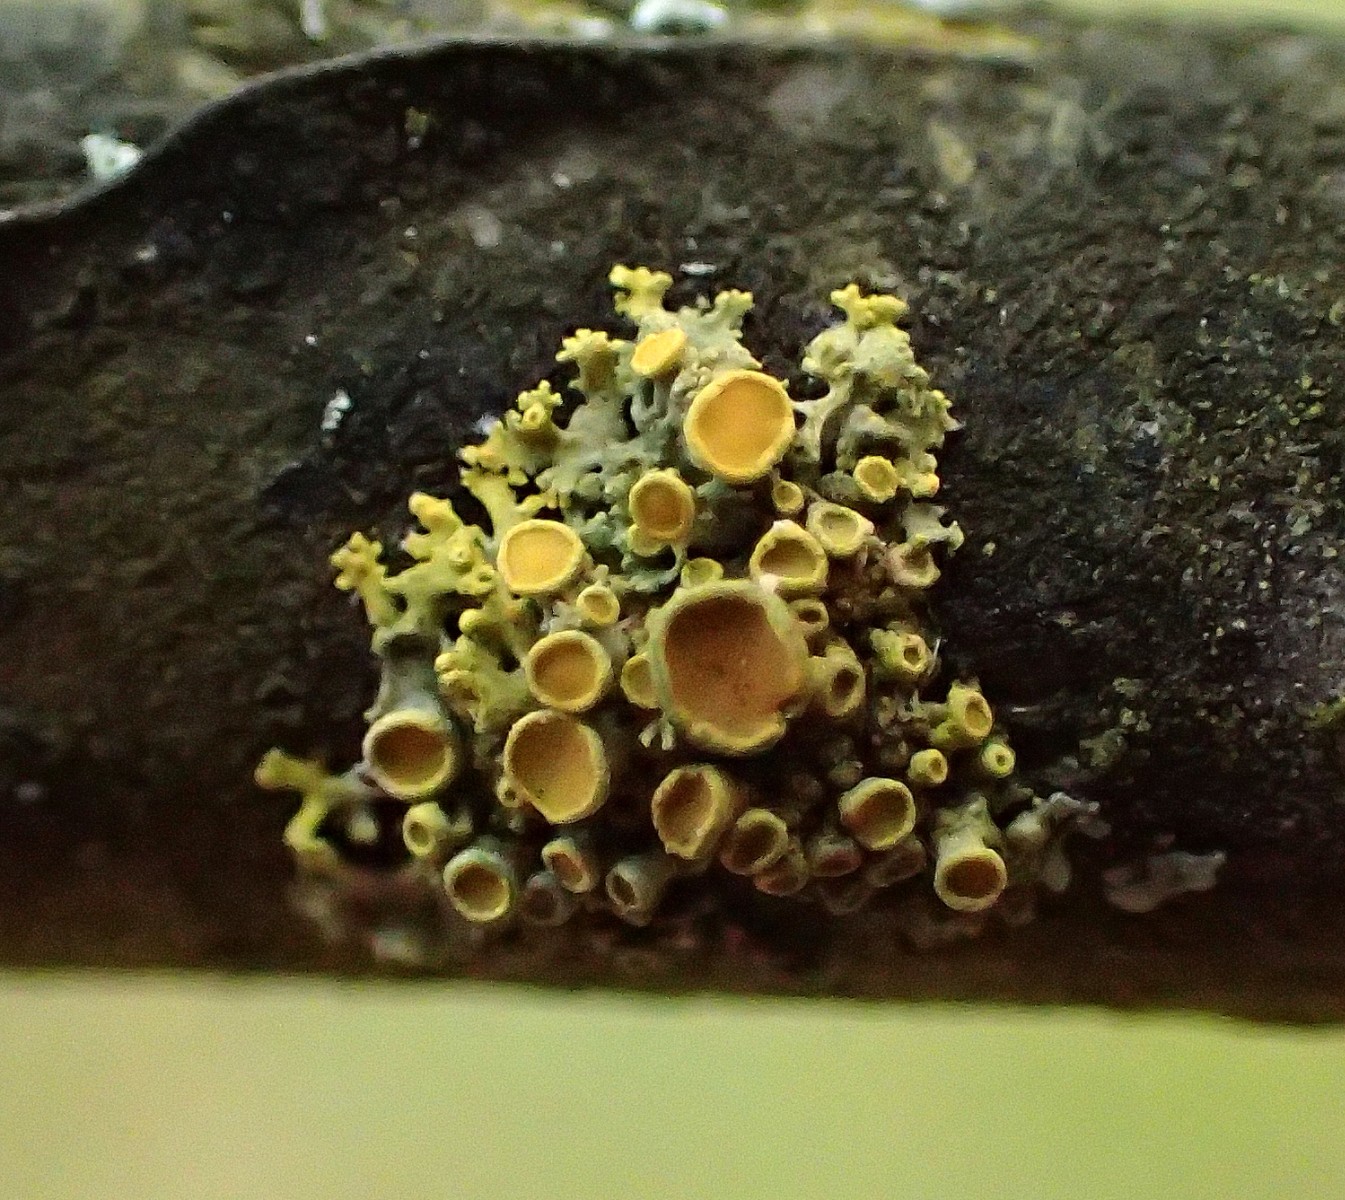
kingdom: Fungi
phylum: Ascomycota
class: Lecanoromycetes
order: Teloschistales
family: Teloschistaceae
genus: Polycauliona
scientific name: Polycauliona polycarpa
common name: mangefrugtet orangelav
